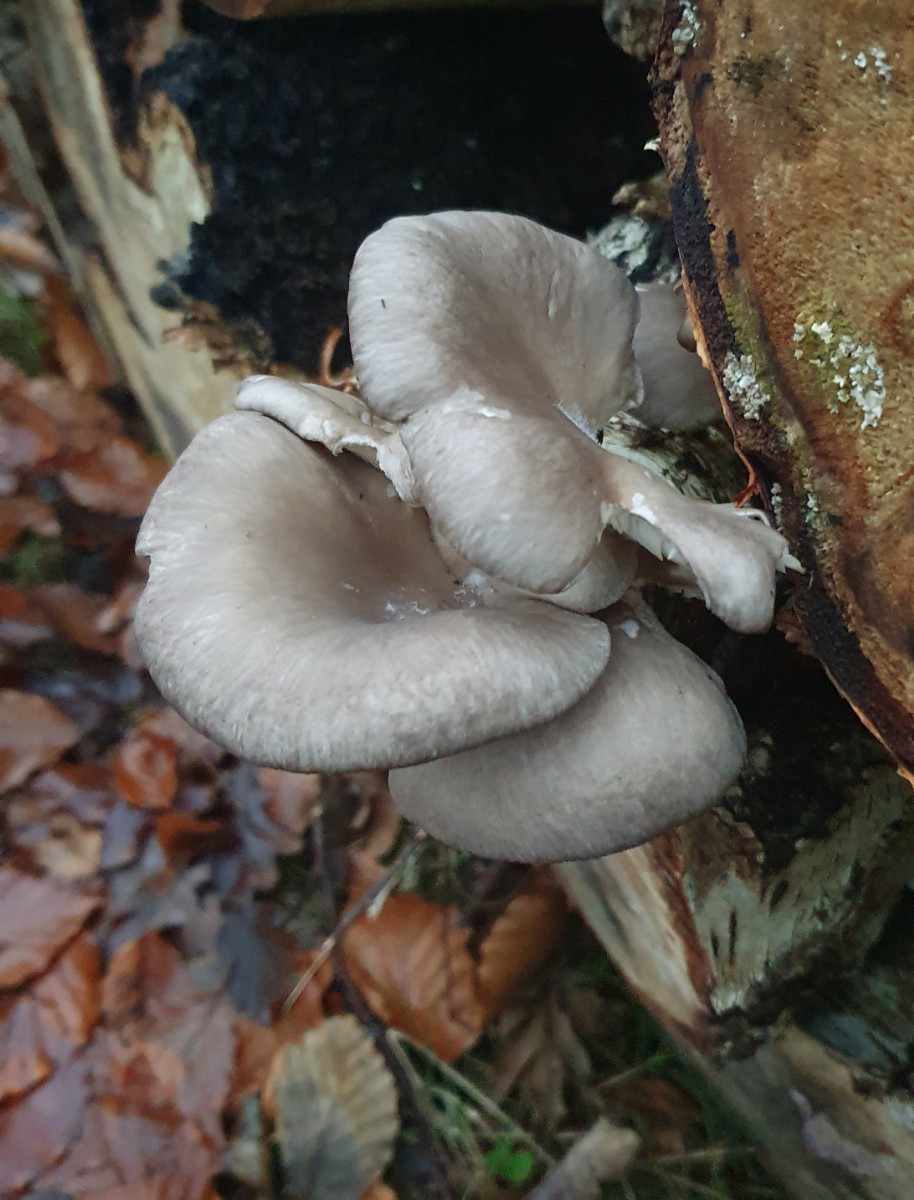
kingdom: Fungi
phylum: Basidiomycota
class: Agaricomycetes
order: Agaricales
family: Pleurotaceae
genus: Pleurotus
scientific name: Pleurotus ostreatus
